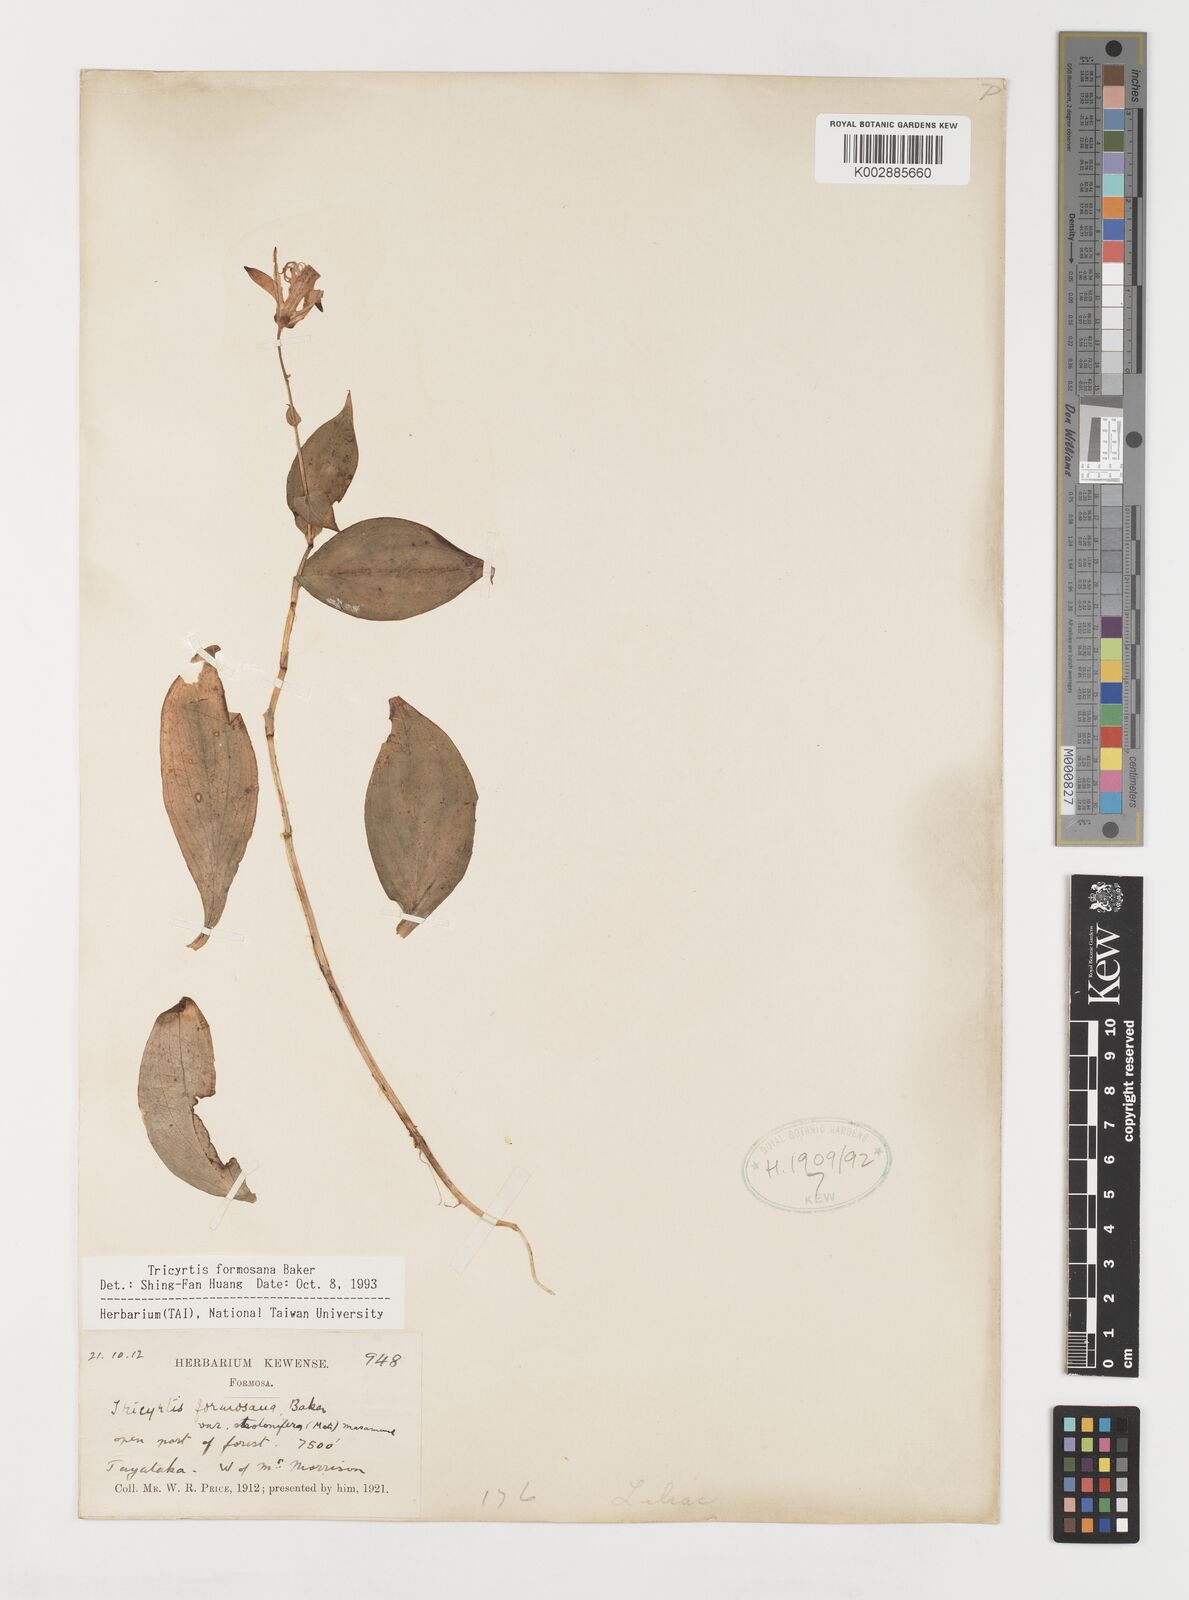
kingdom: Plantae
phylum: Tracheophyta
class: Liliopsida
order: Liliales
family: Liliaceae
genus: Tricyrtis
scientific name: Tricyrtis formosana
